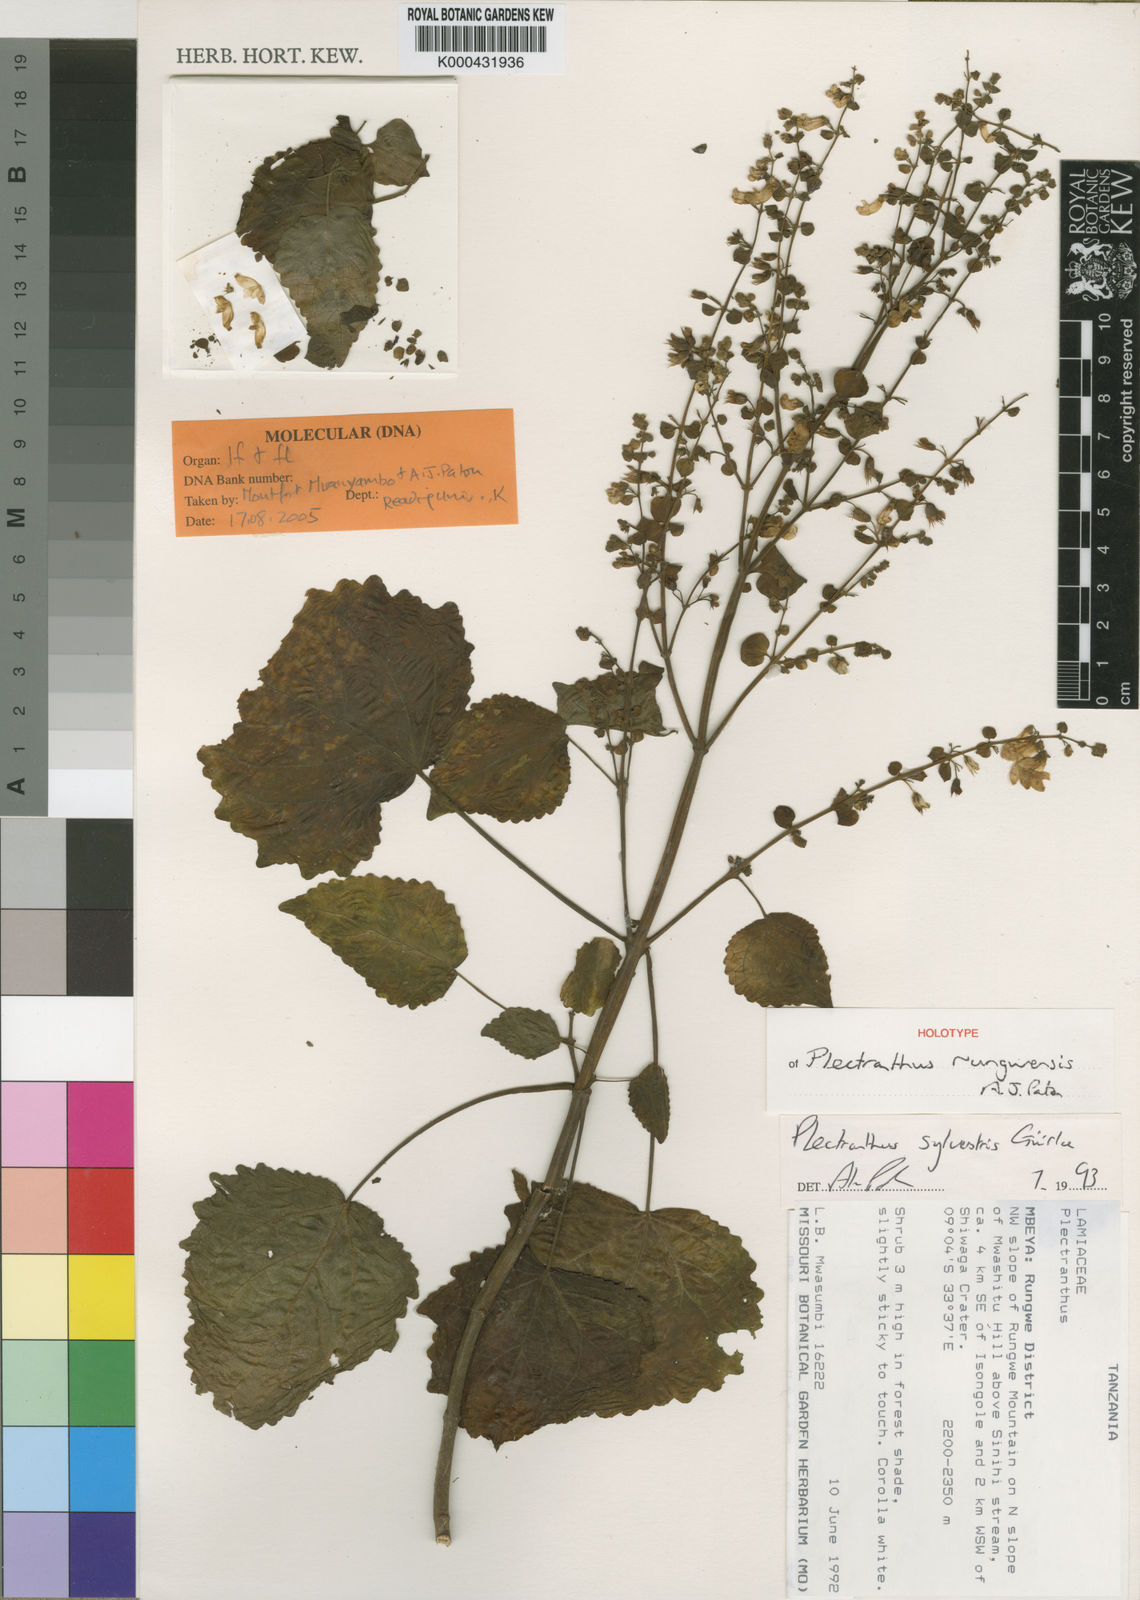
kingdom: Plantae
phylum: Tracheophyta
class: Magnoliopsida
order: Lamiales
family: Lamiaceae
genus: Equilabium
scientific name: Equilabium rungwense
